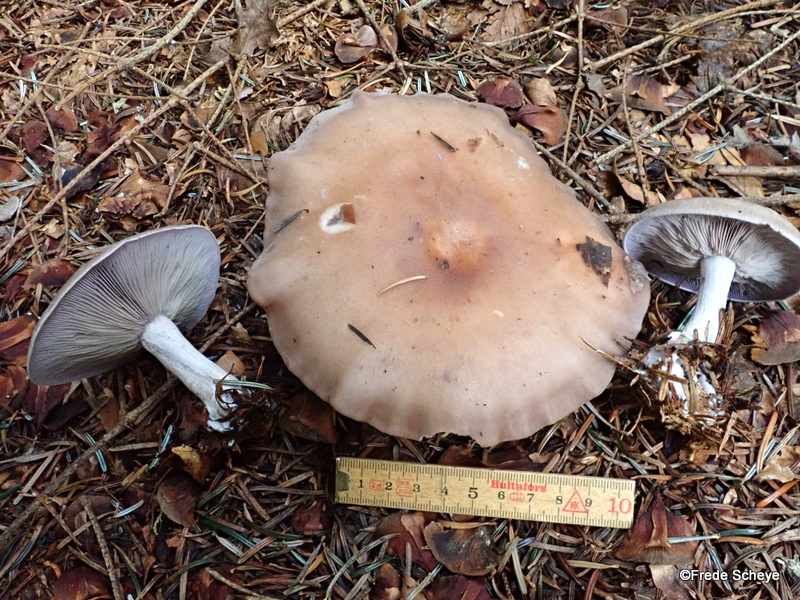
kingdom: Fungi
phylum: Basidiomycota
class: Agaricomycetes
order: Agaricales
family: Tricholomataceae
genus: Lepista
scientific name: Lepista nuda
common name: violet hekseringshat
